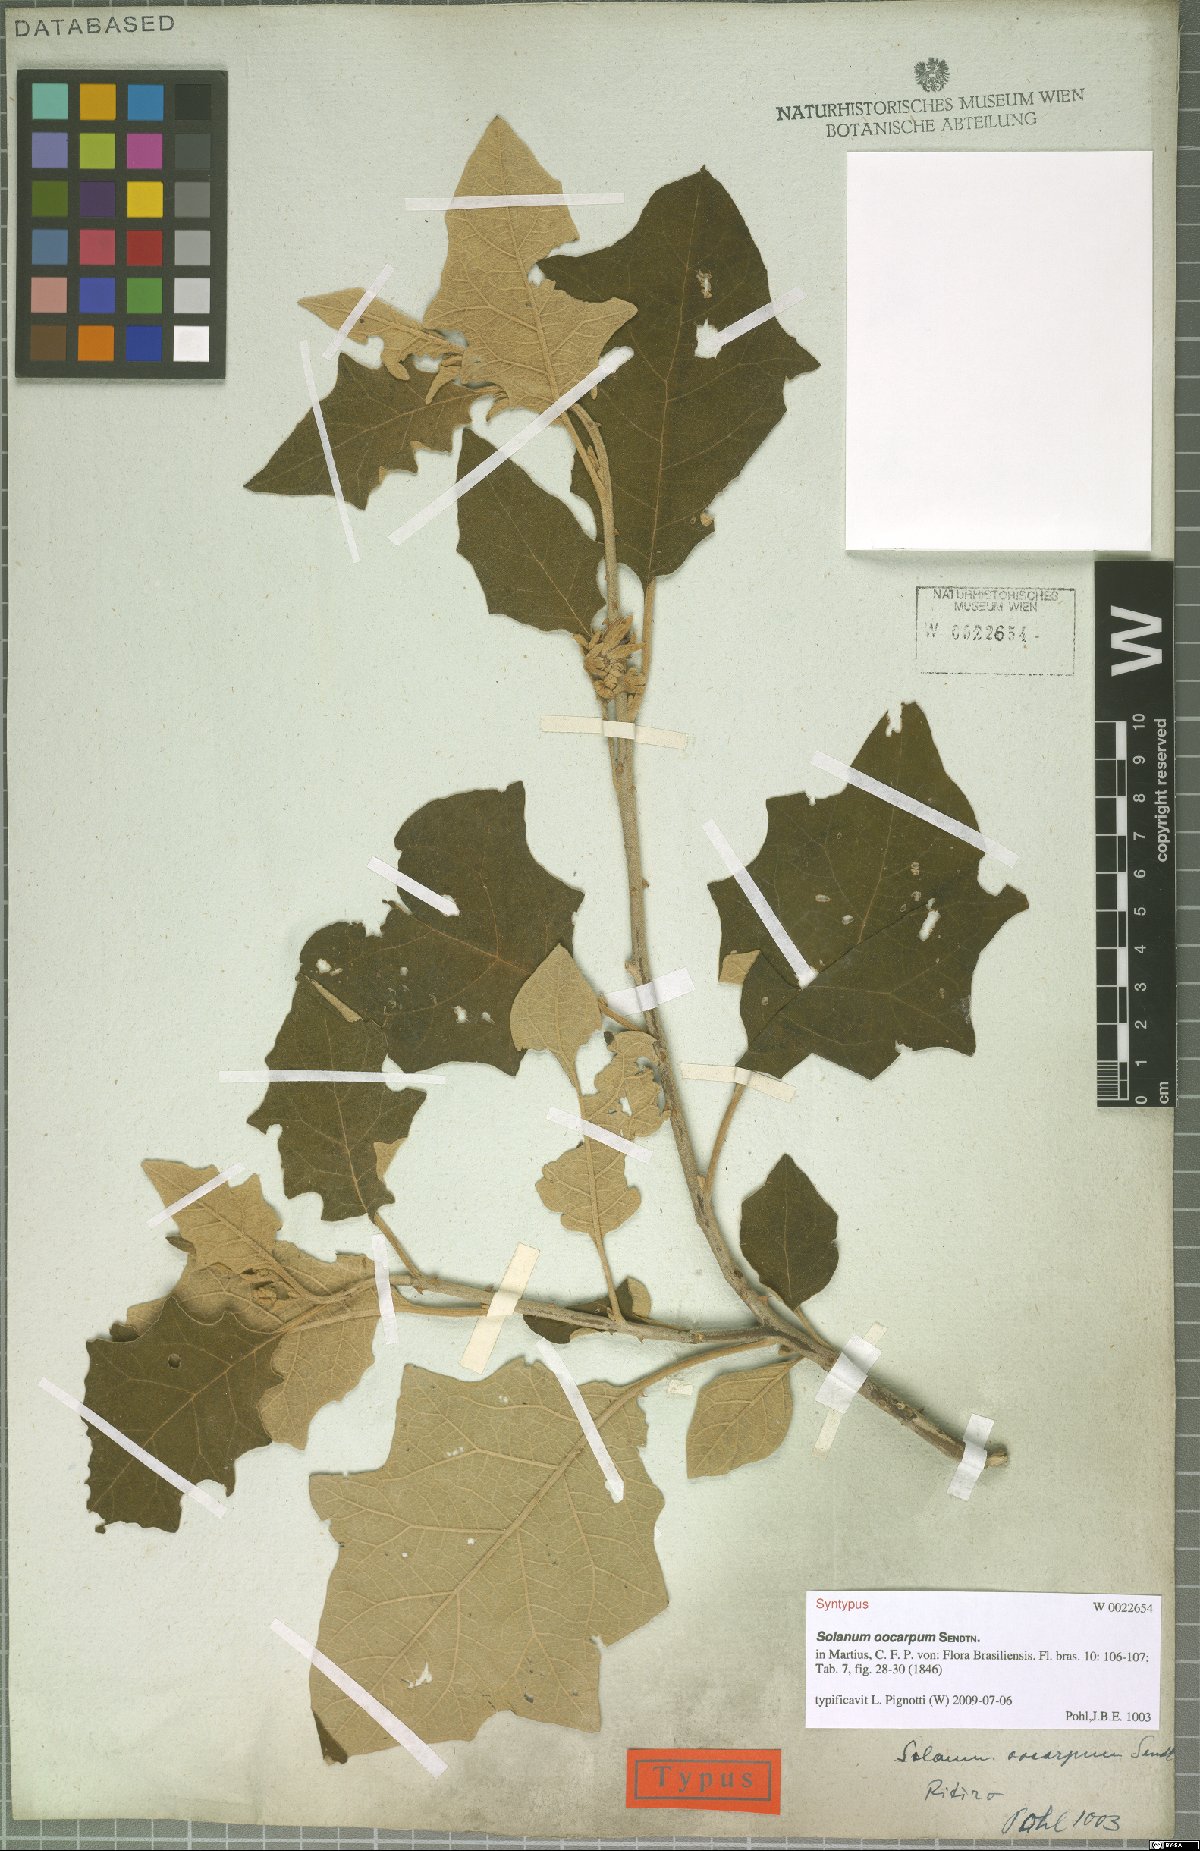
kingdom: Plantae
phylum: Tracheophyta
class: Magnoliopsida
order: Solanales
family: Solanaceae
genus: Solanum
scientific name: Solanum oocarpum
